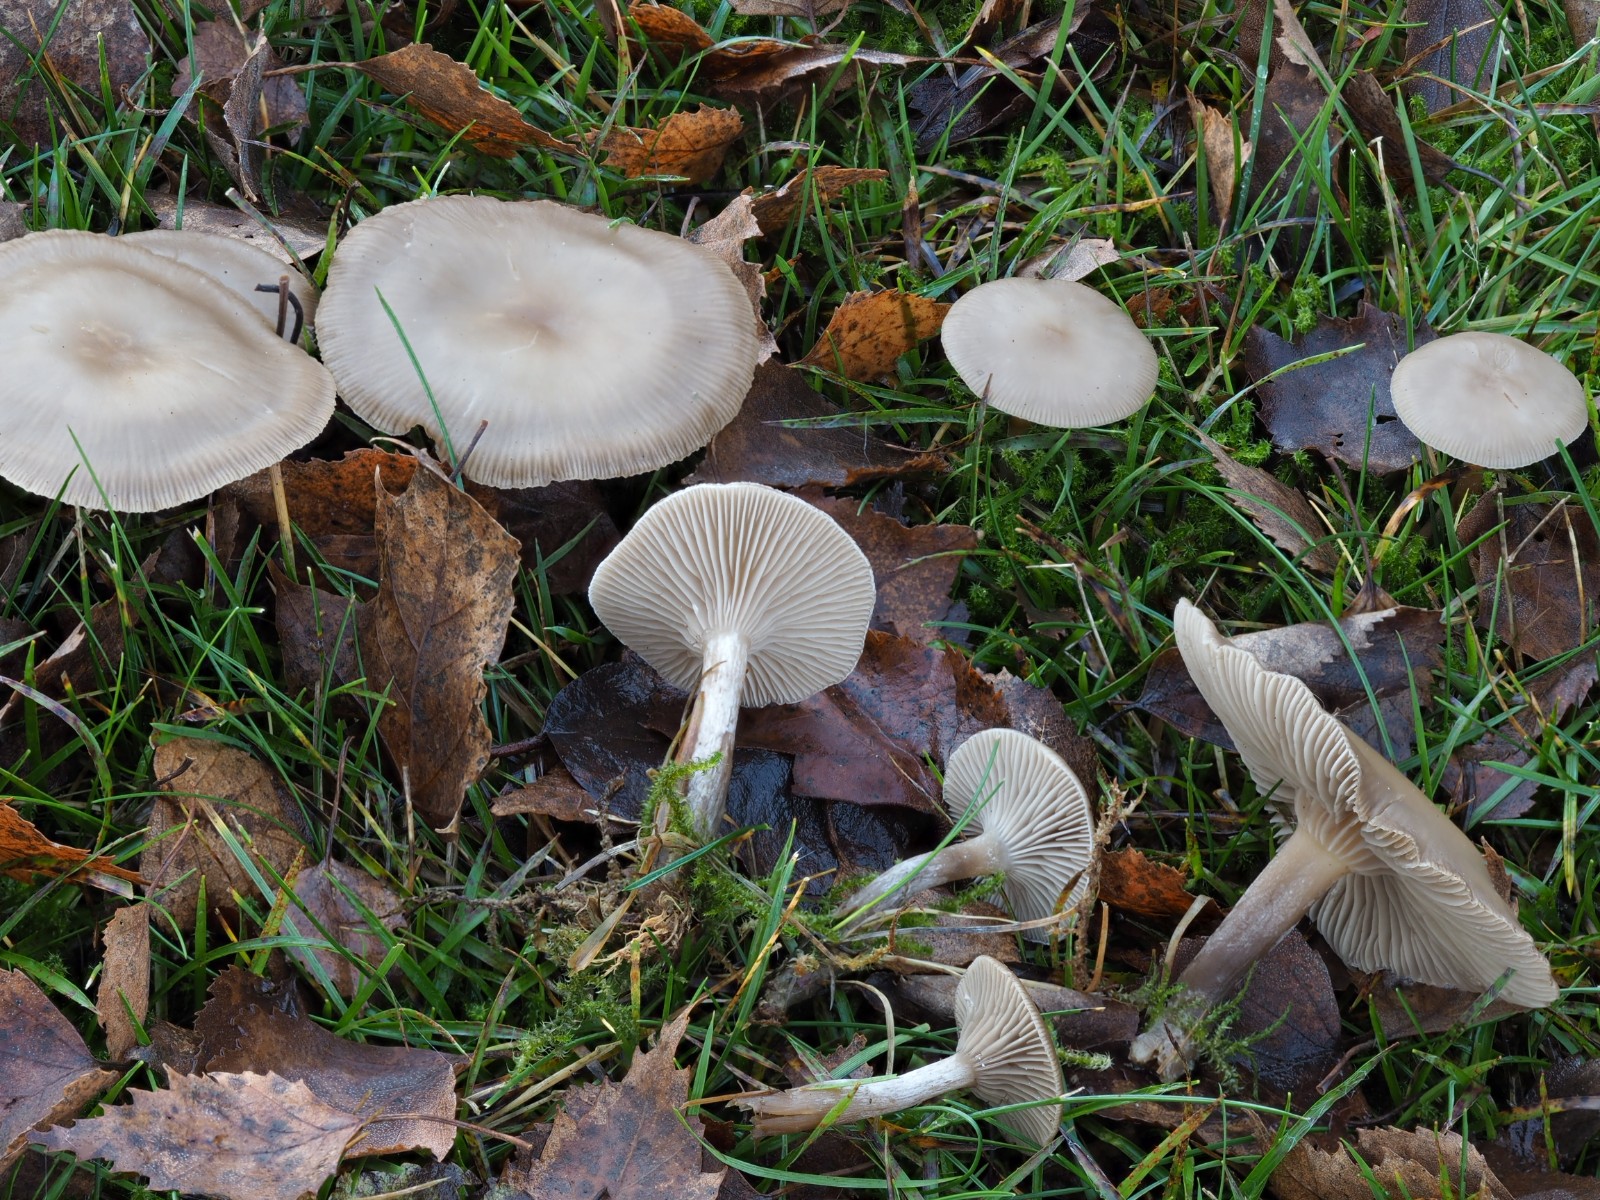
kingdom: Fungi
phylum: Basidiomycota
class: Agaricomycetes
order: Agaricales
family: Tricholomataceae
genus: Clitocybe
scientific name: Clitocybe
